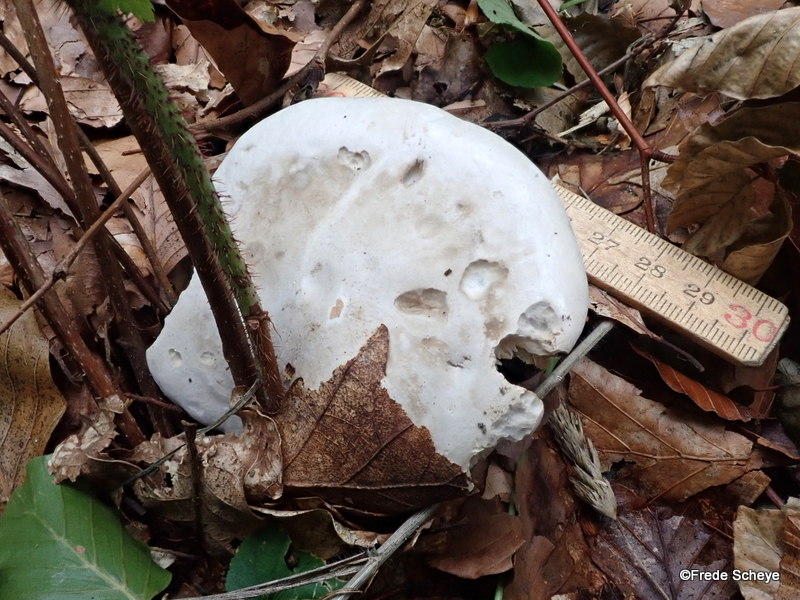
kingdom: Fungi
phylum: Basidiomycota
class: Agaricomycetes
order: Agaricales
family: Entolomataceae
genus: Clitopilus
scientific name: Clitopilus prunulus
